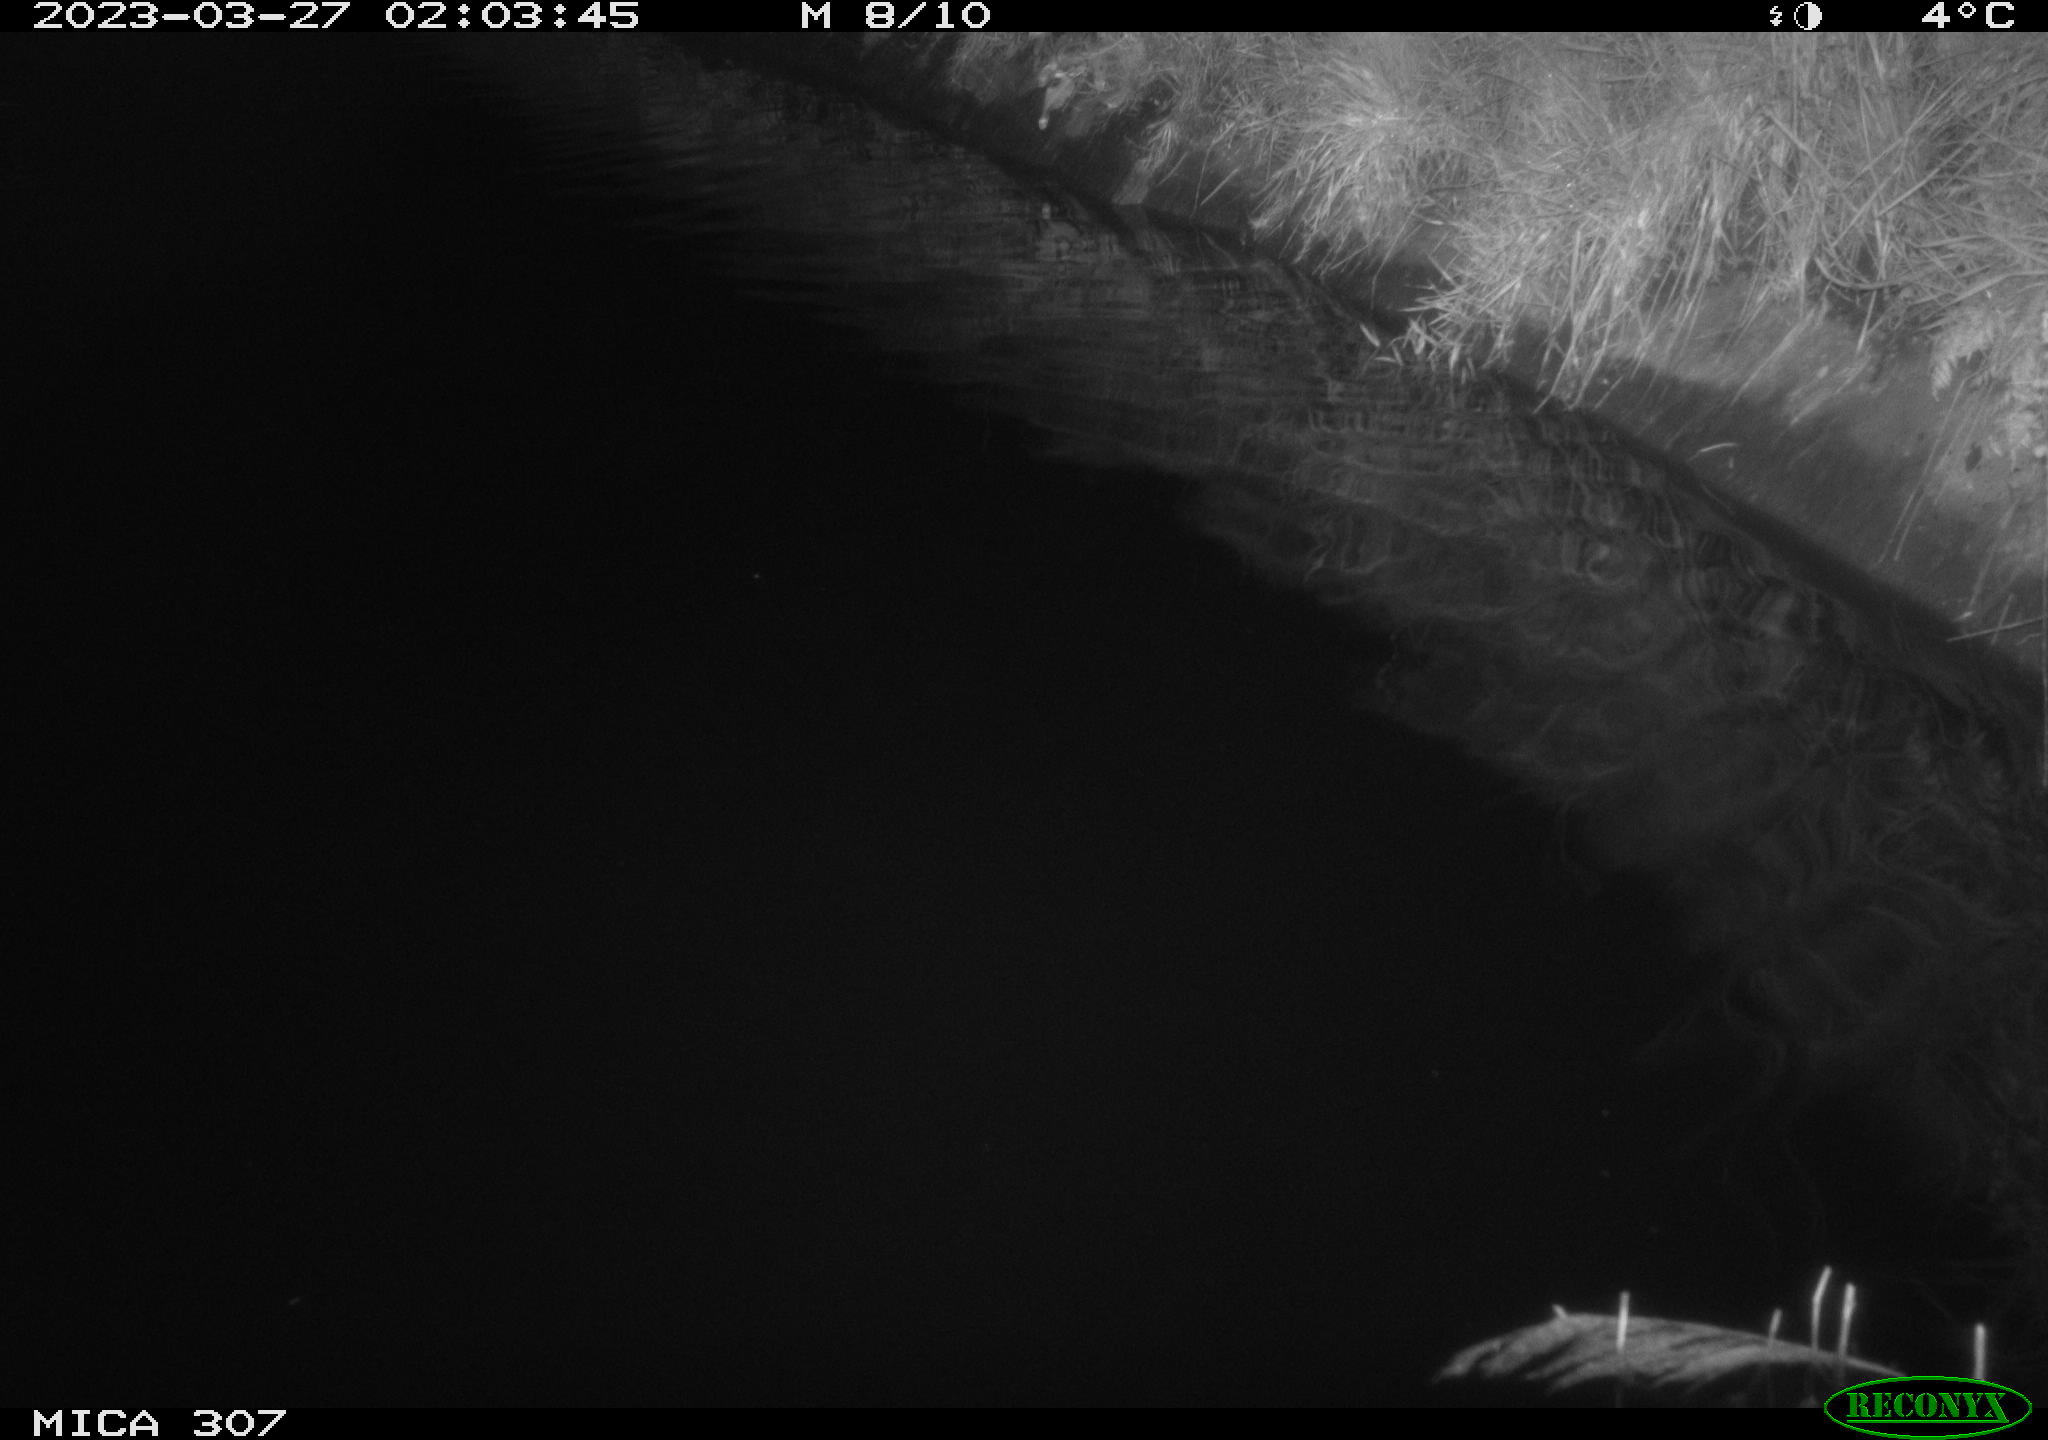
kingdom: Animalia
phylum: Chordata
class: Aves
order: Anseriformes
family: Anatidae
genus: Anas
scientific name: Anas
